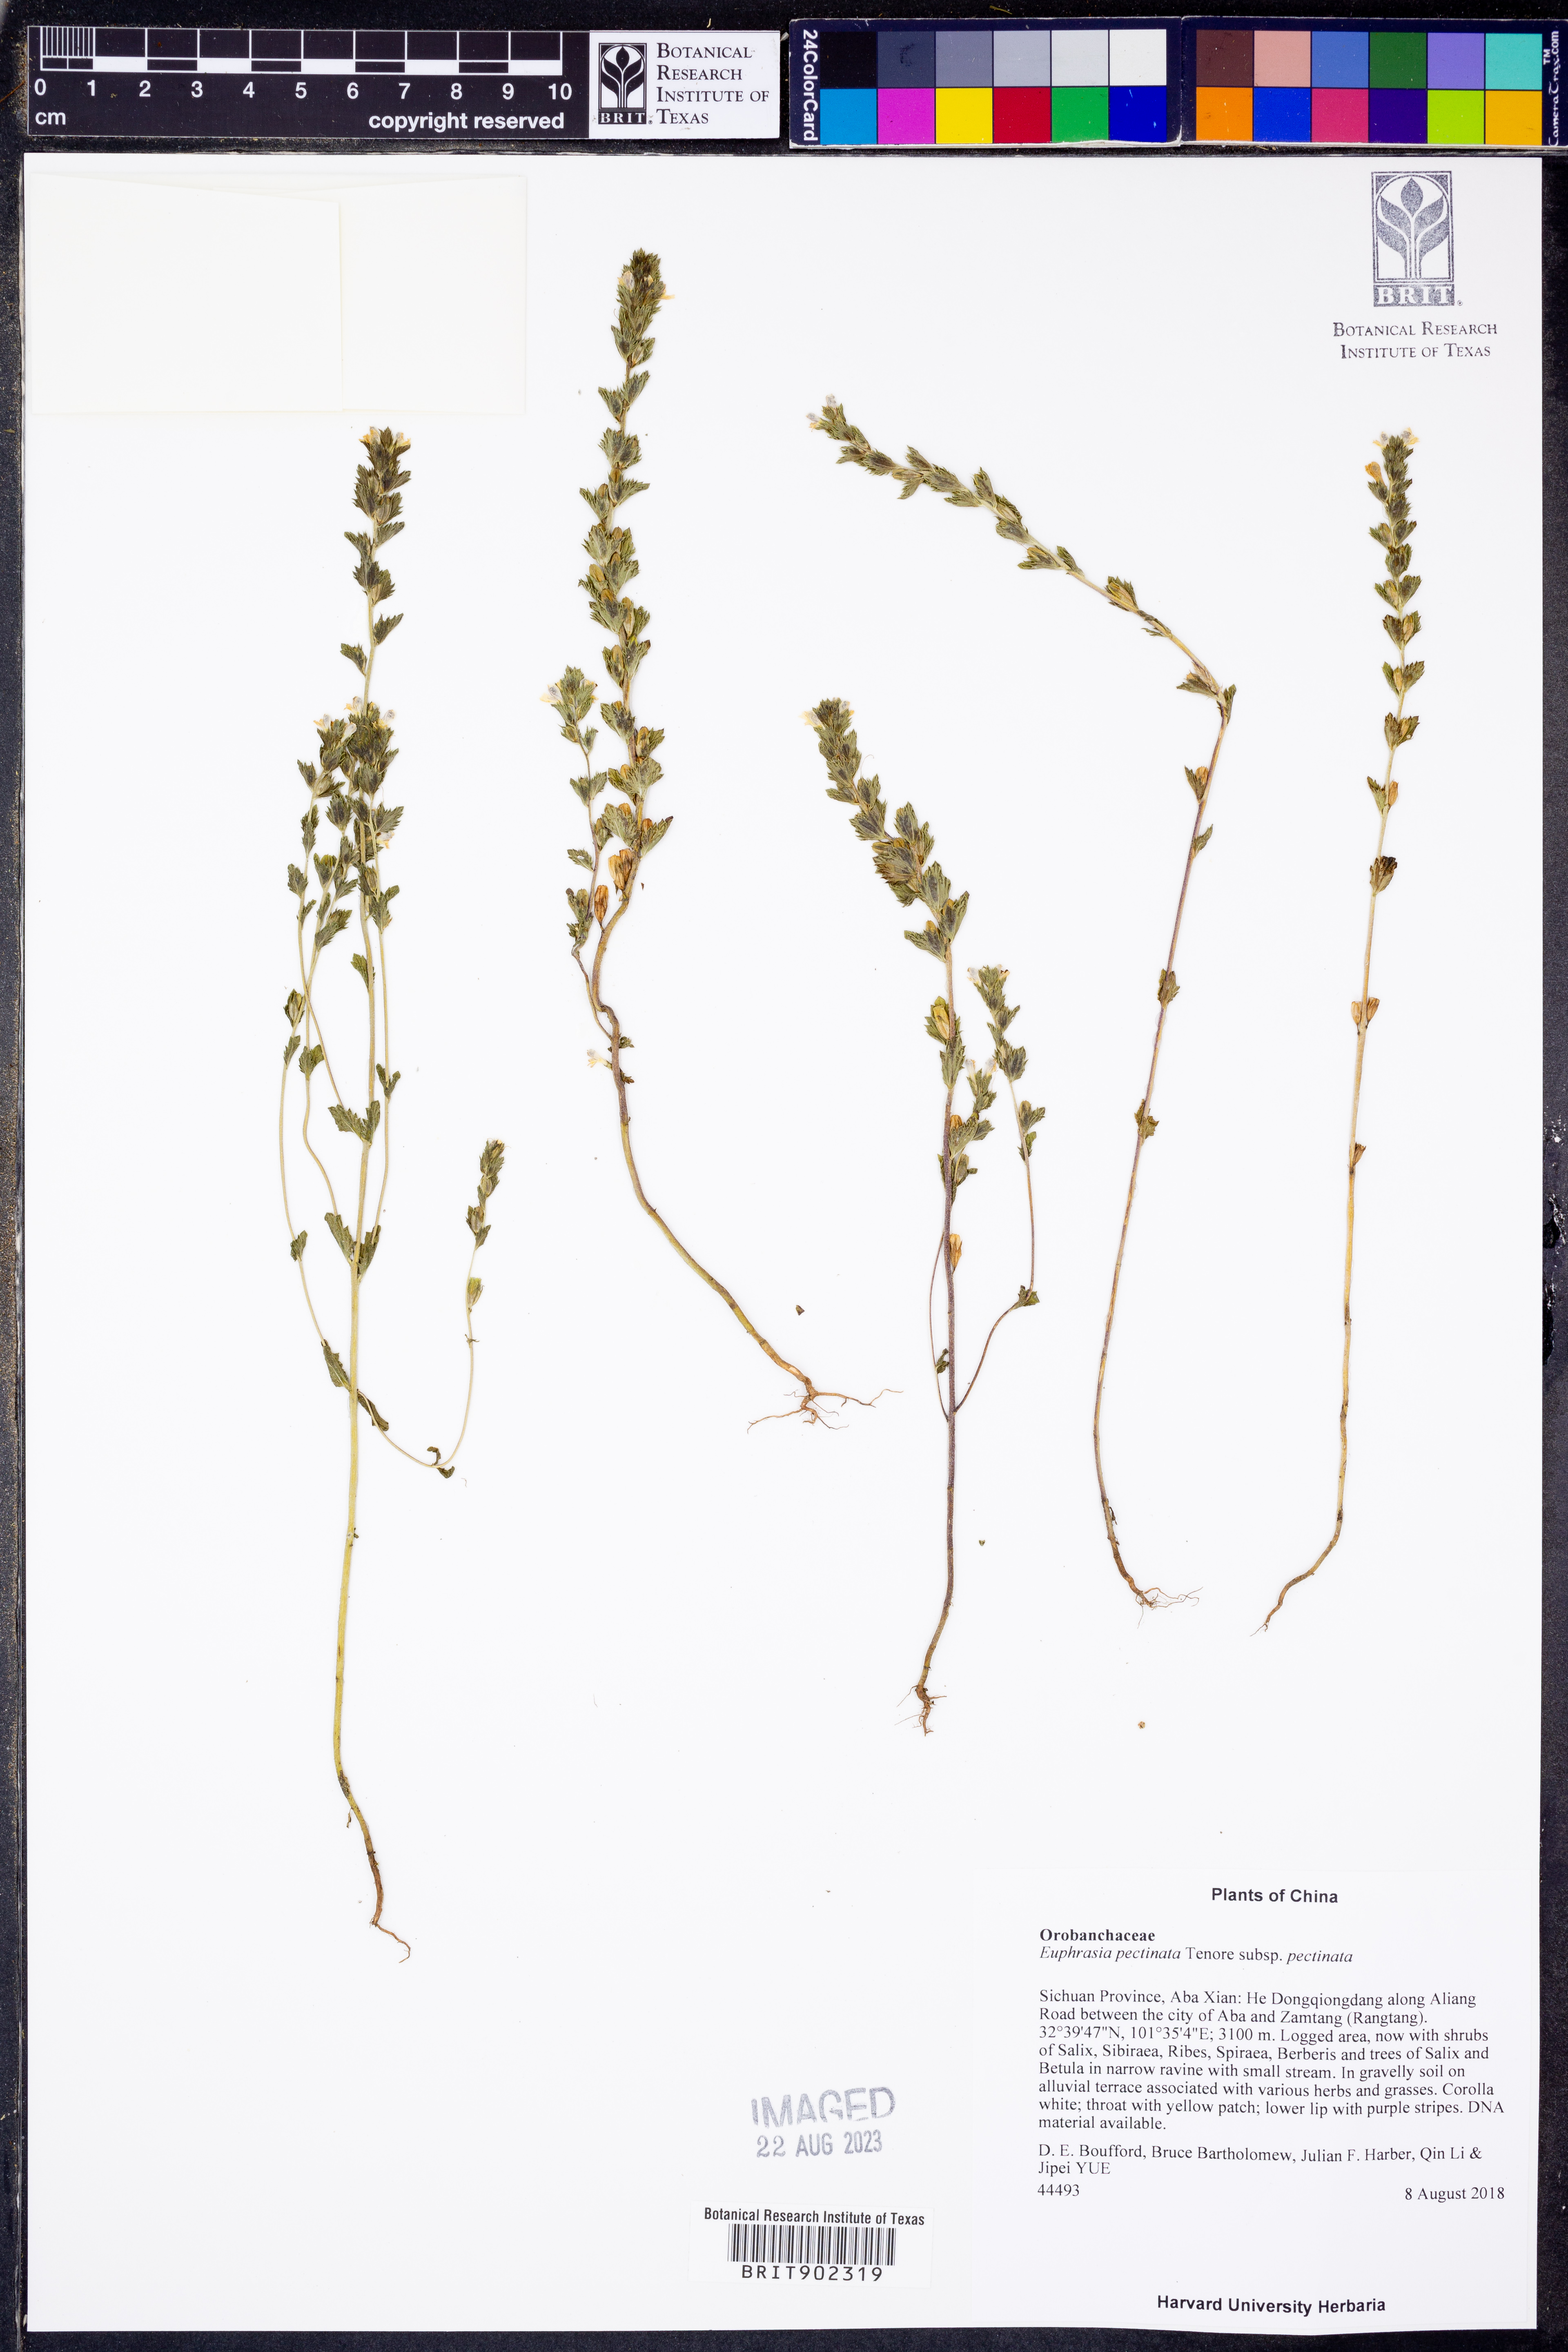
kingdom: Plantae
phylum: Tracheophyta
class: Magnoliopsida
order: Lamiales
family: Orobanchaceae
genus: Euphrasia
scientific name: Euphrasia pectinata
